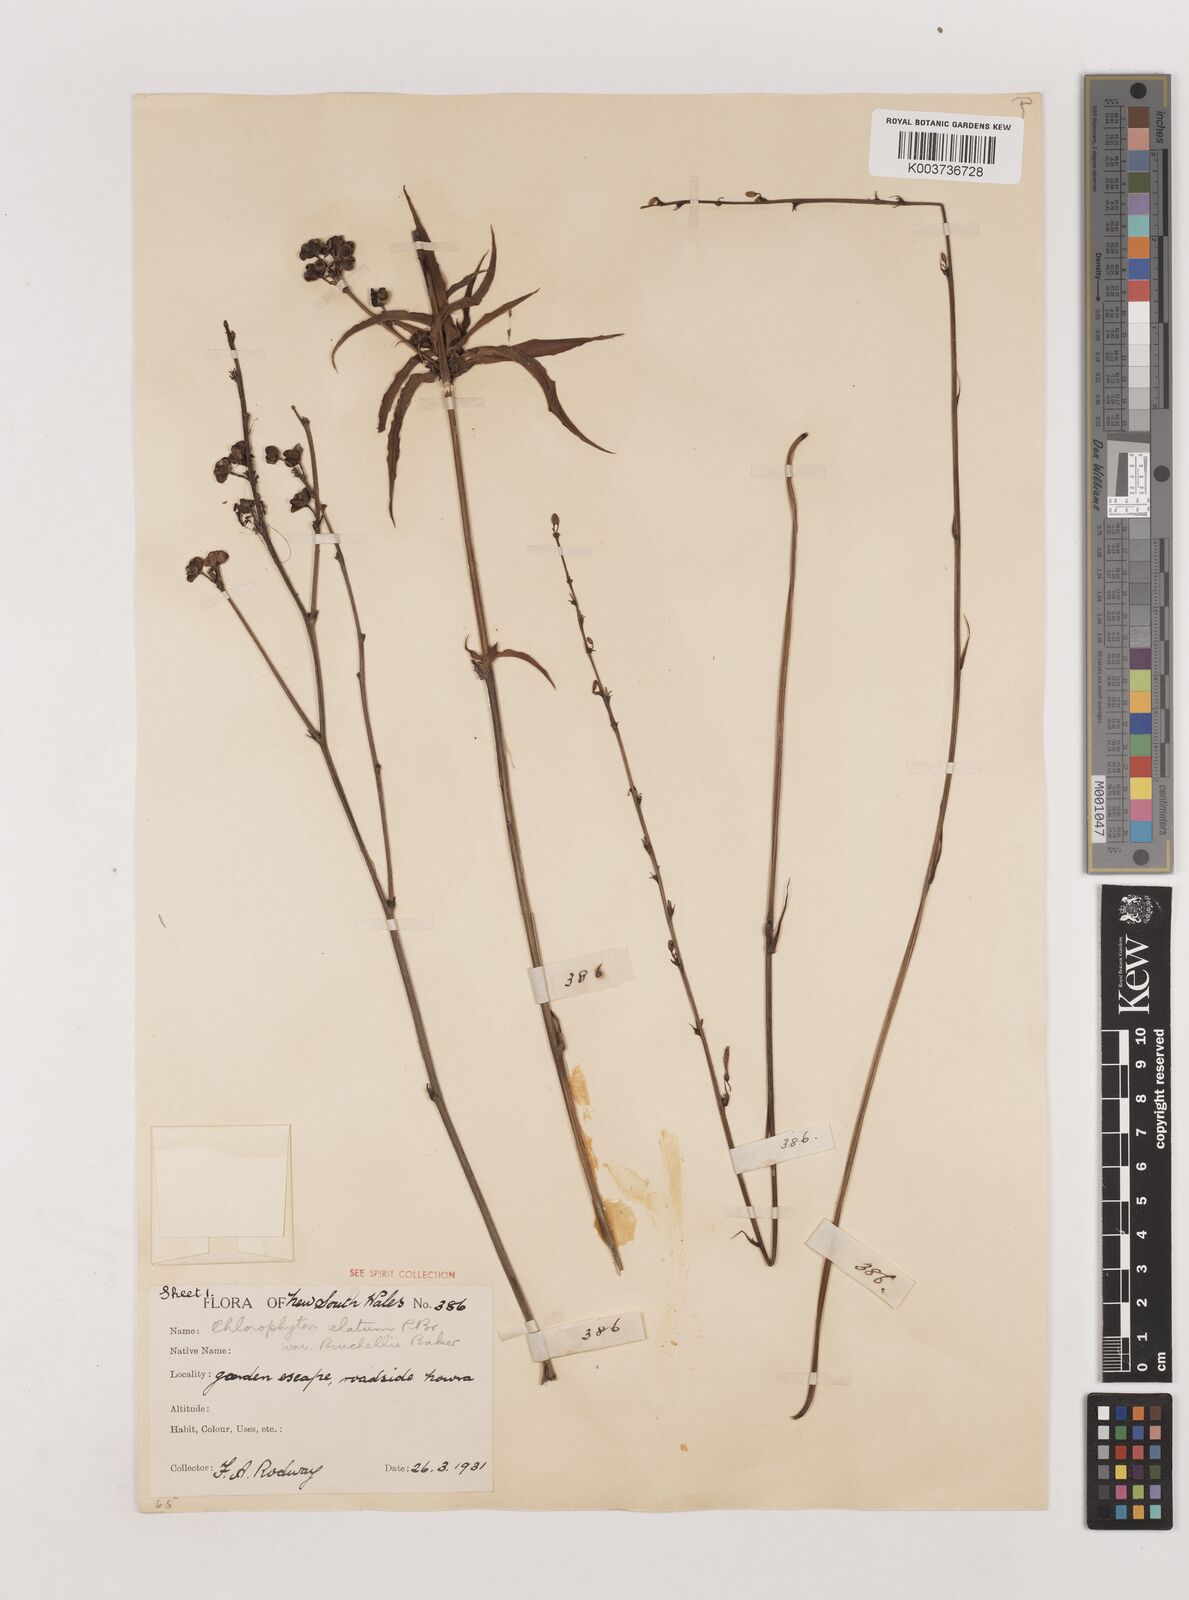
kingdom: Plantae
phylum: Tracheophyta
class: Liliopsida
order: Asparagales
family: Asparagaceae
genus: Chlorophytum
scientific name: Chlorophytum capense
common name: Bracketplant
